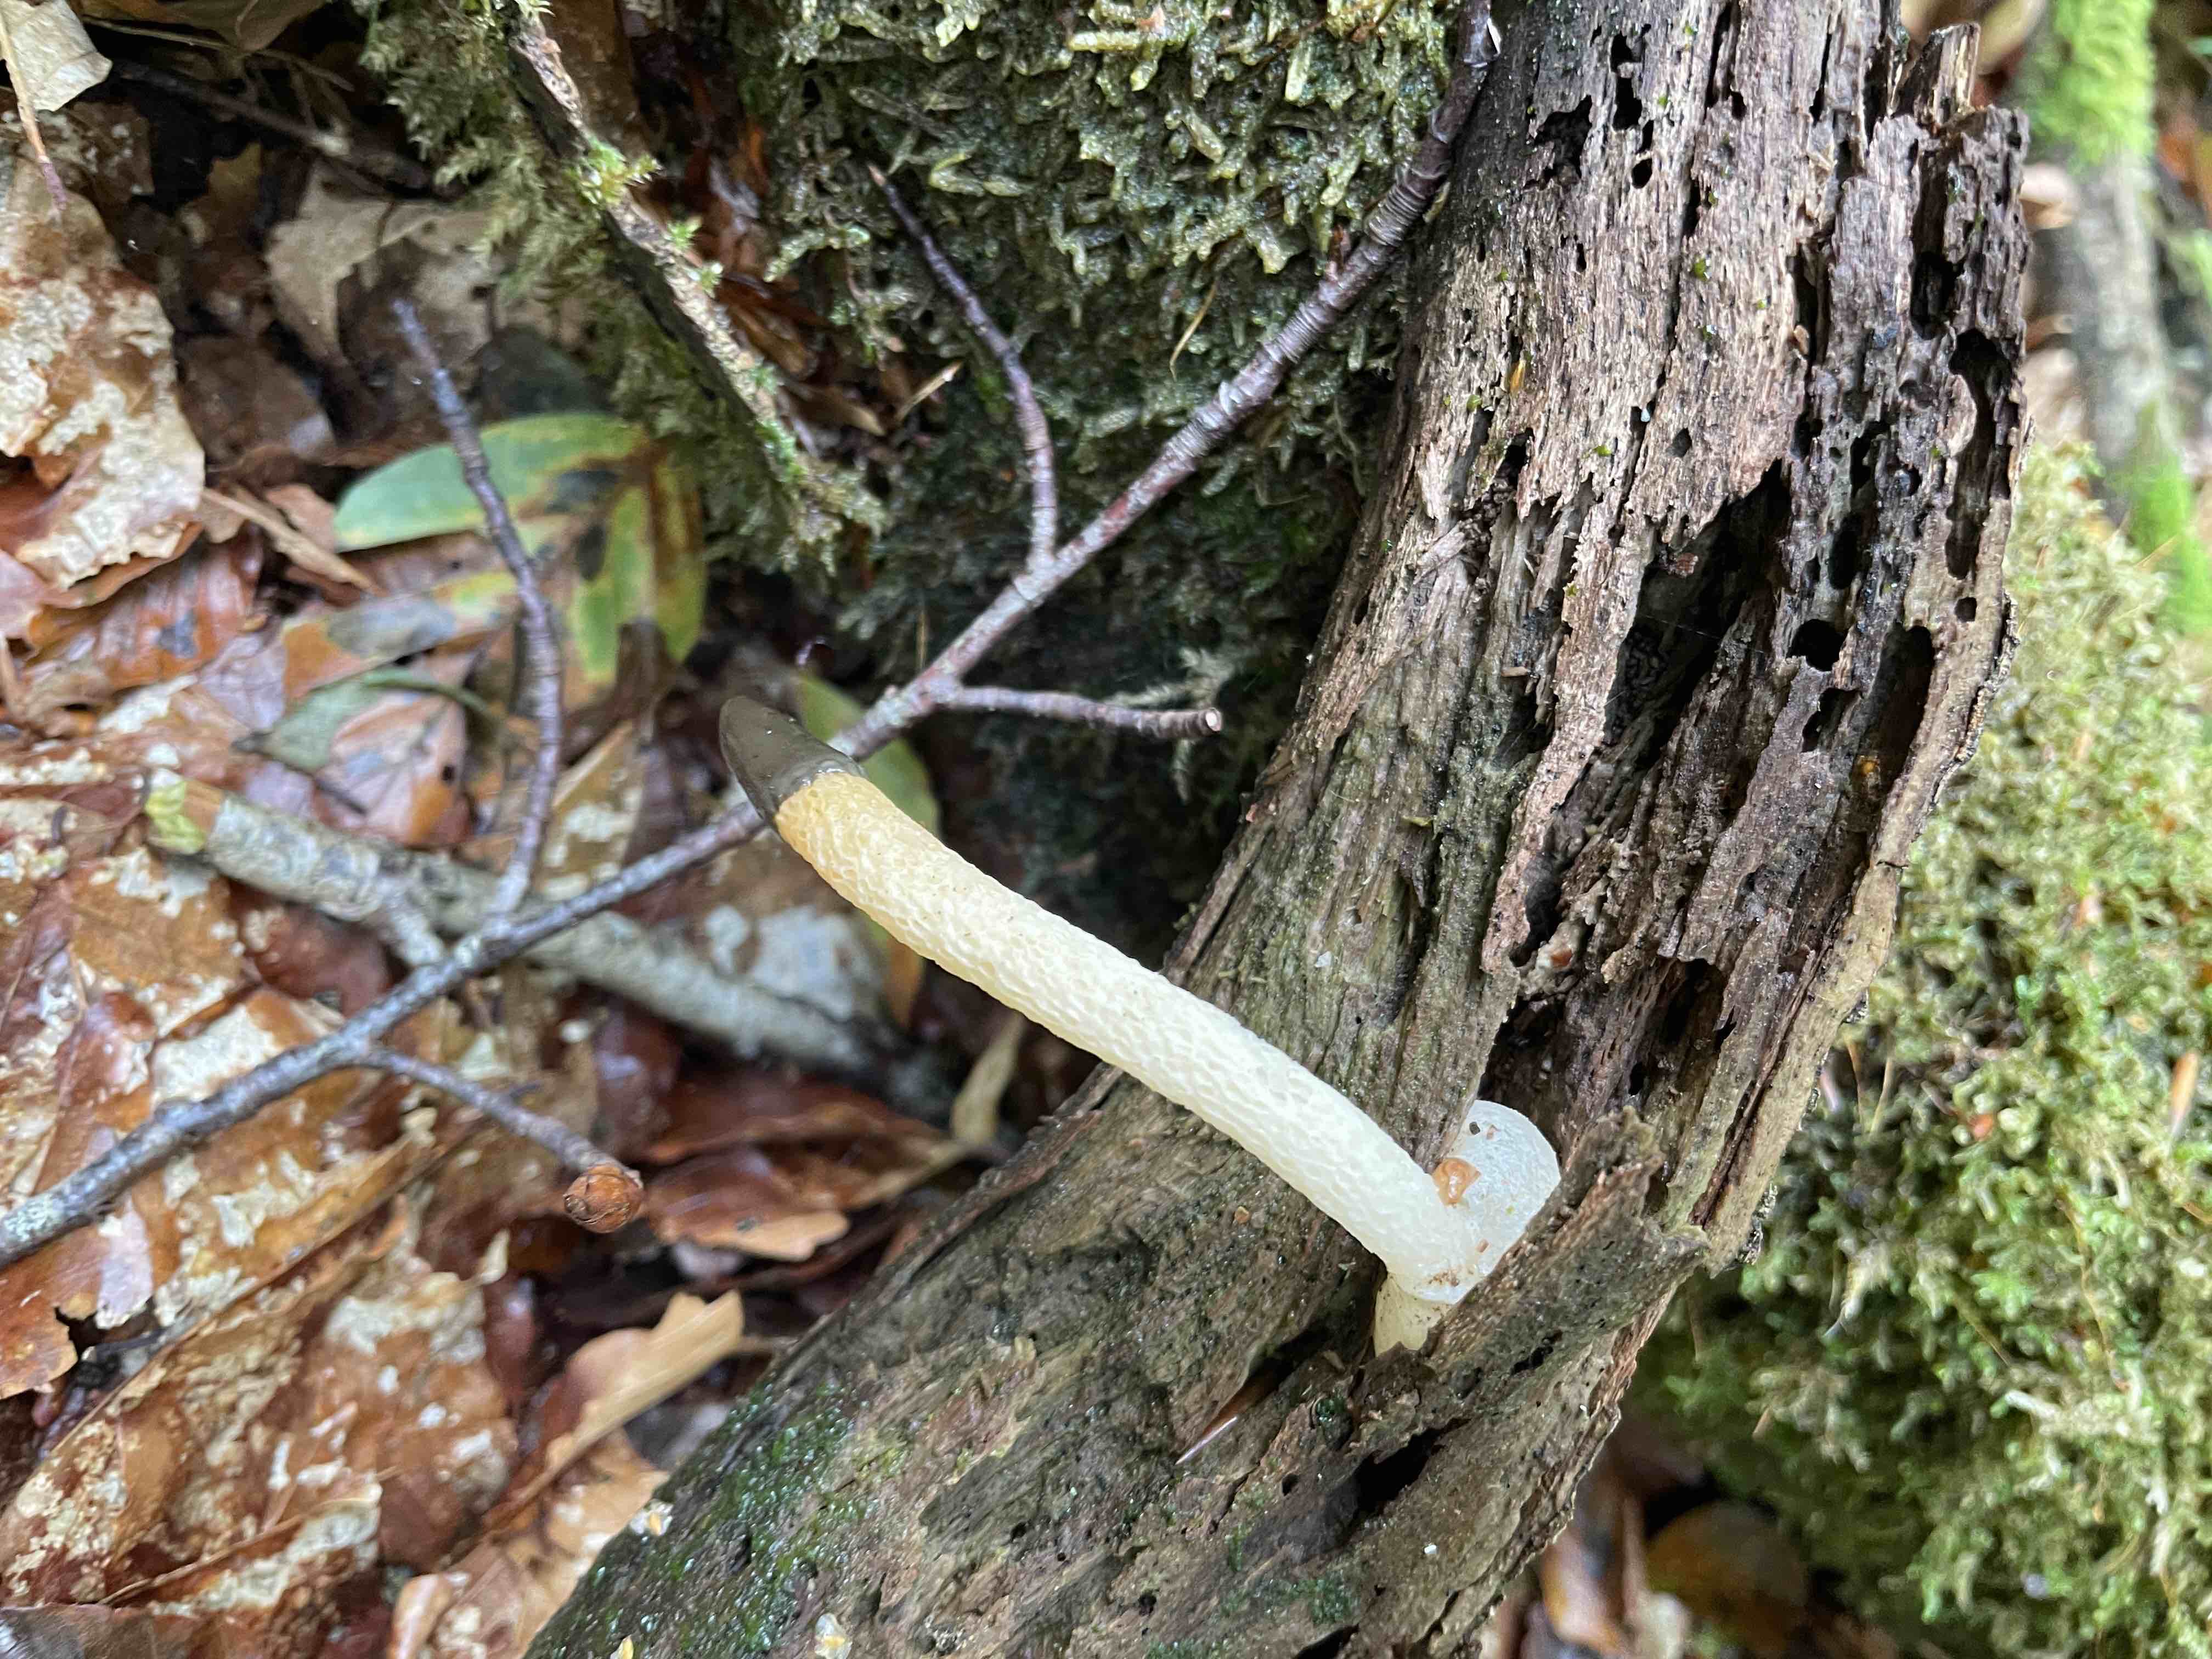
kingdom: Fungi
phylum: Basidiomycota
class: Agaricomycetes
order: Phallales
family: Phallaceae
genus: Mutinus
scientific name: Mutinus caninus
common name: hunde-stinksvamp
